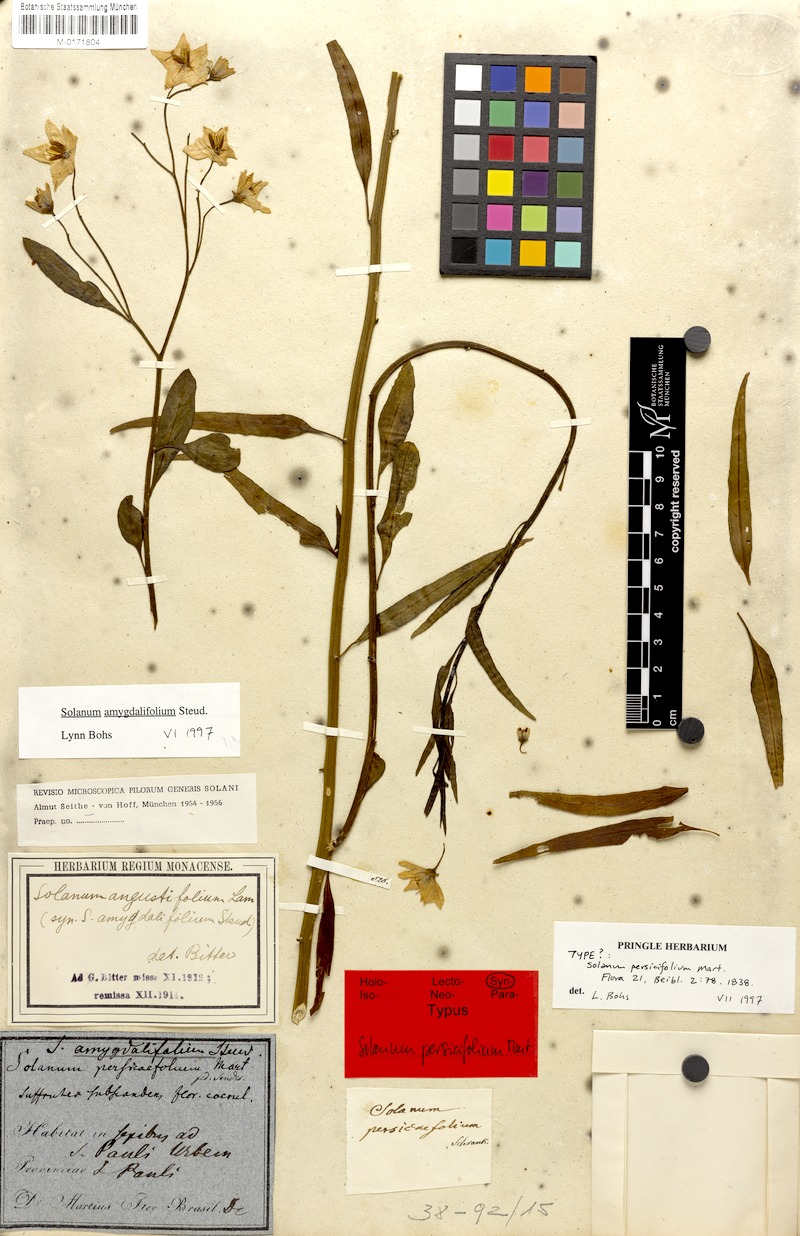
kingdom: Plantae
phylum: Tracheophyta
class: Magnoliopsida
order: Solanales
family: Solanaceae
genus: Solanum
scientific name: Solanum amygdalifolium
